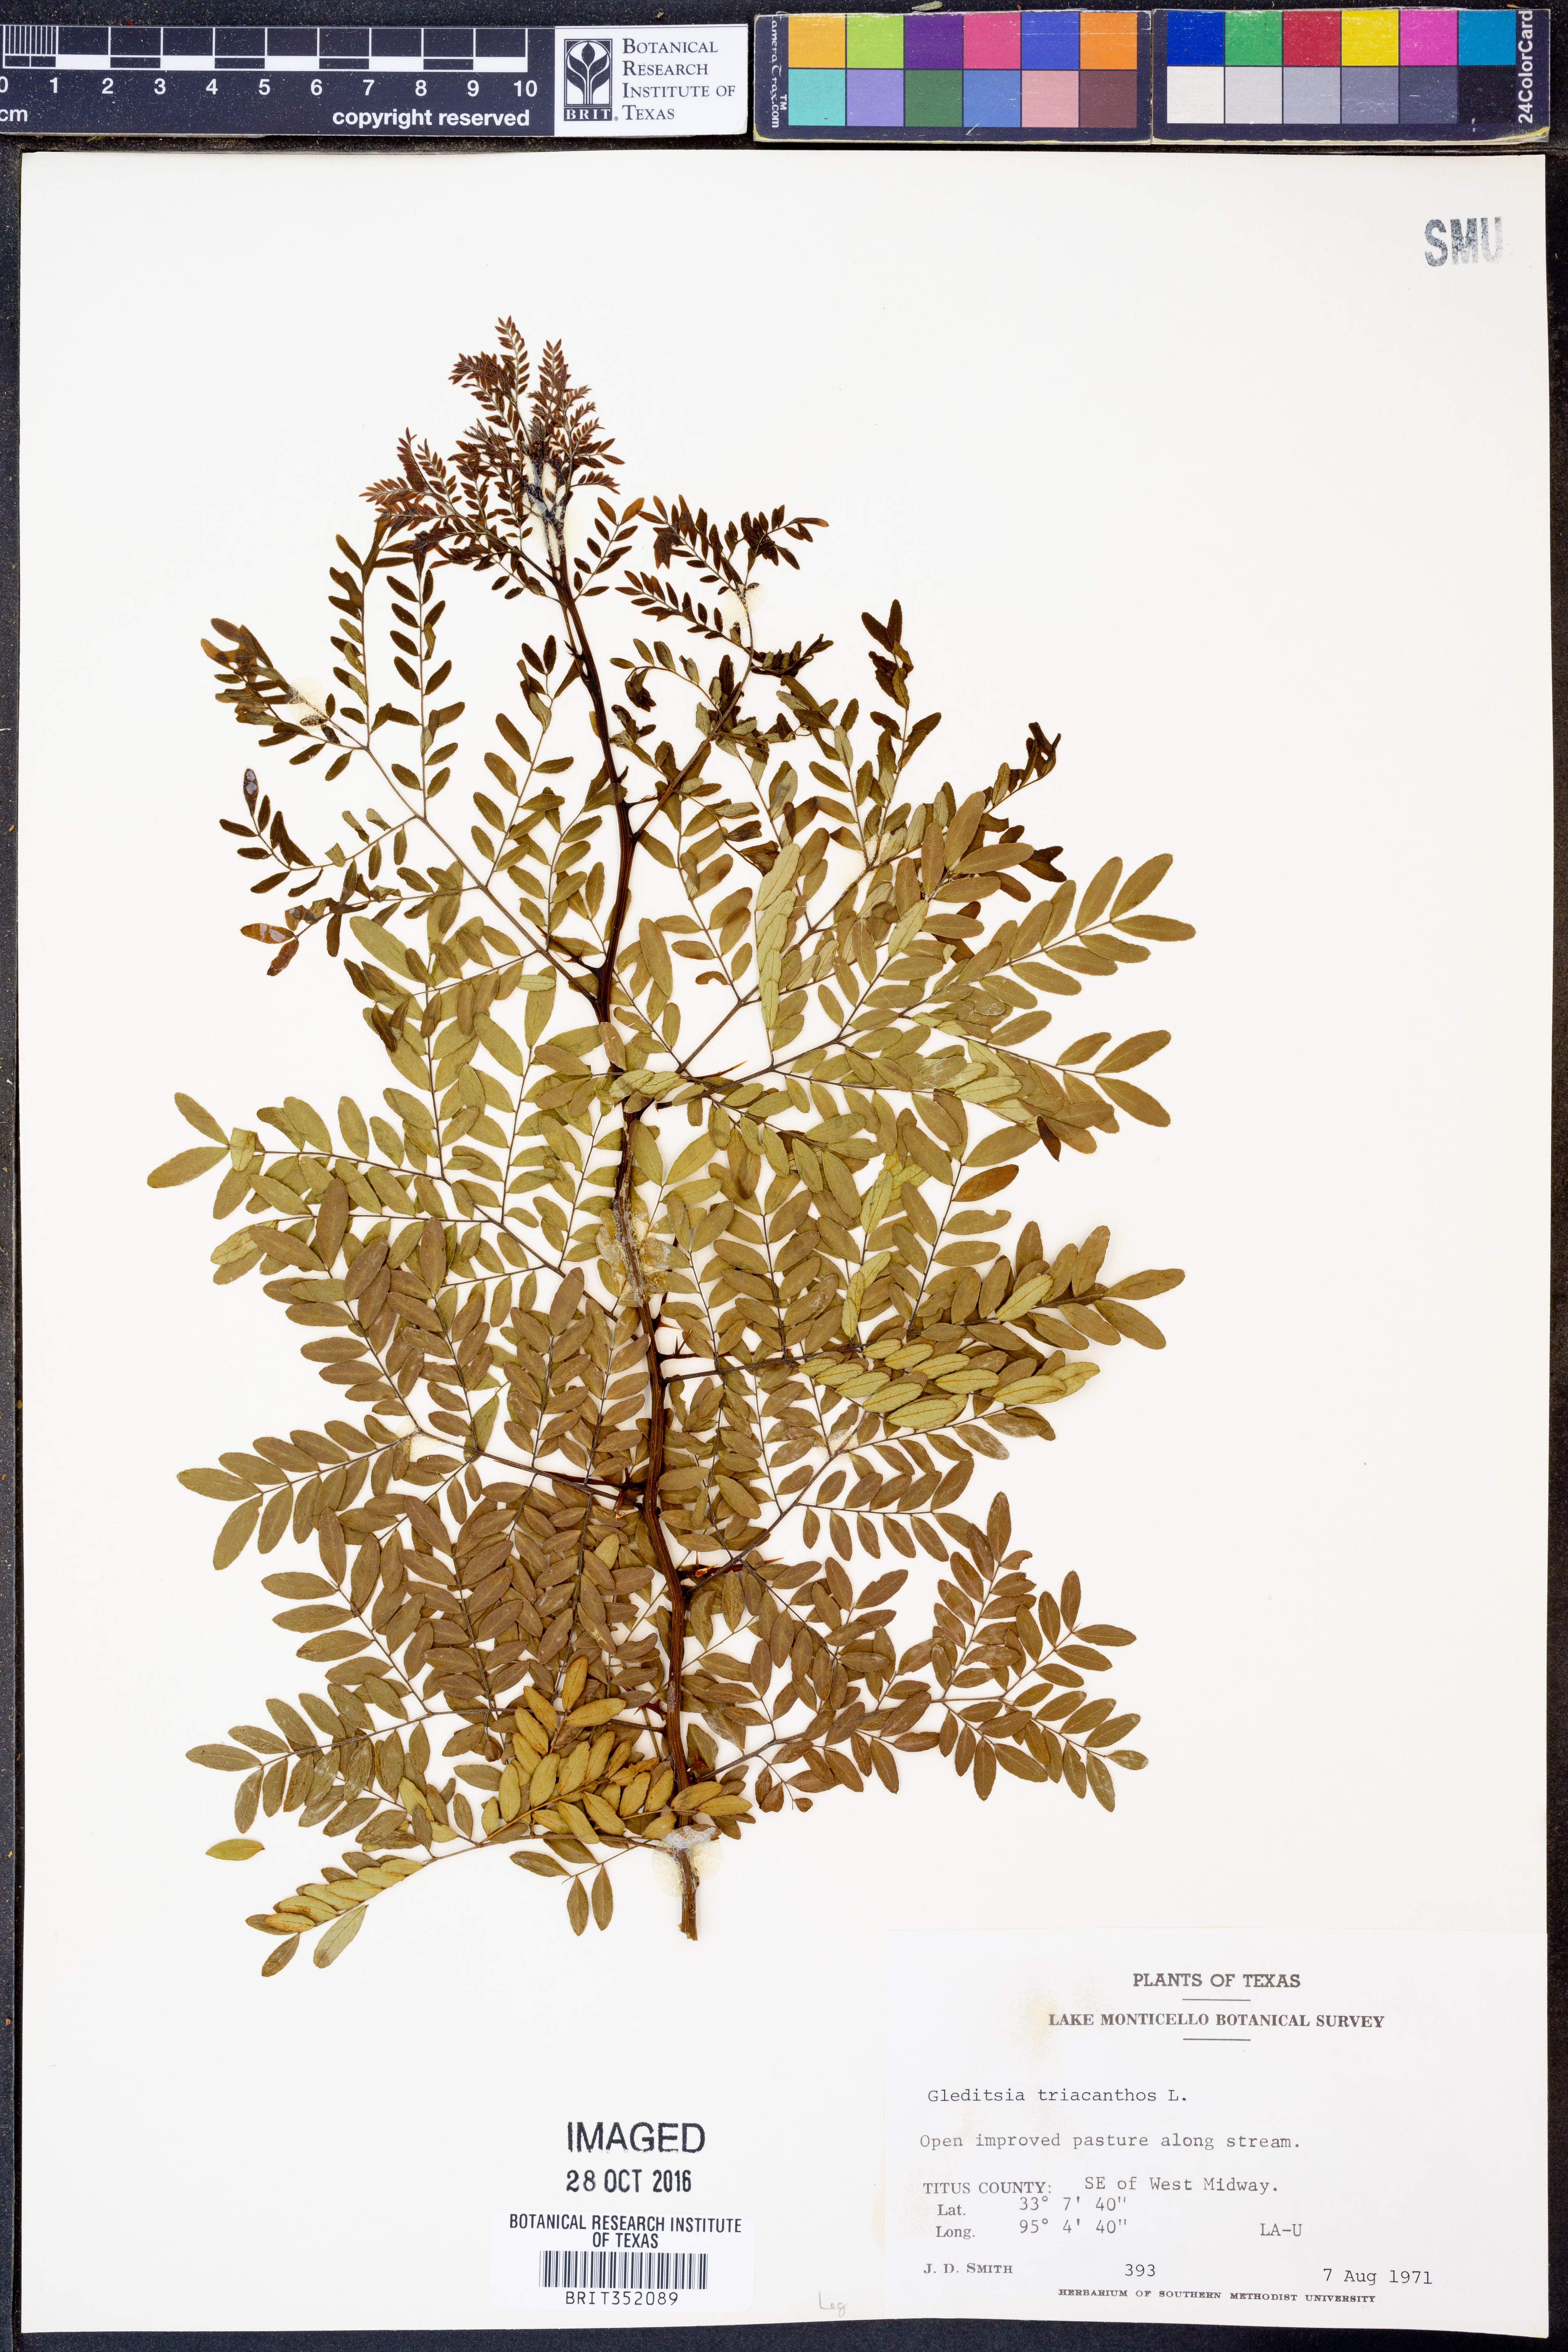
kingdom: Plantae
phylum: Tracheophyta
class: Magnoliopsida
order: Fabales
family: Fabaceae
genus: Gleditsia
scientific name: Gleditsia triacanthos
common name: Common honeylocust
